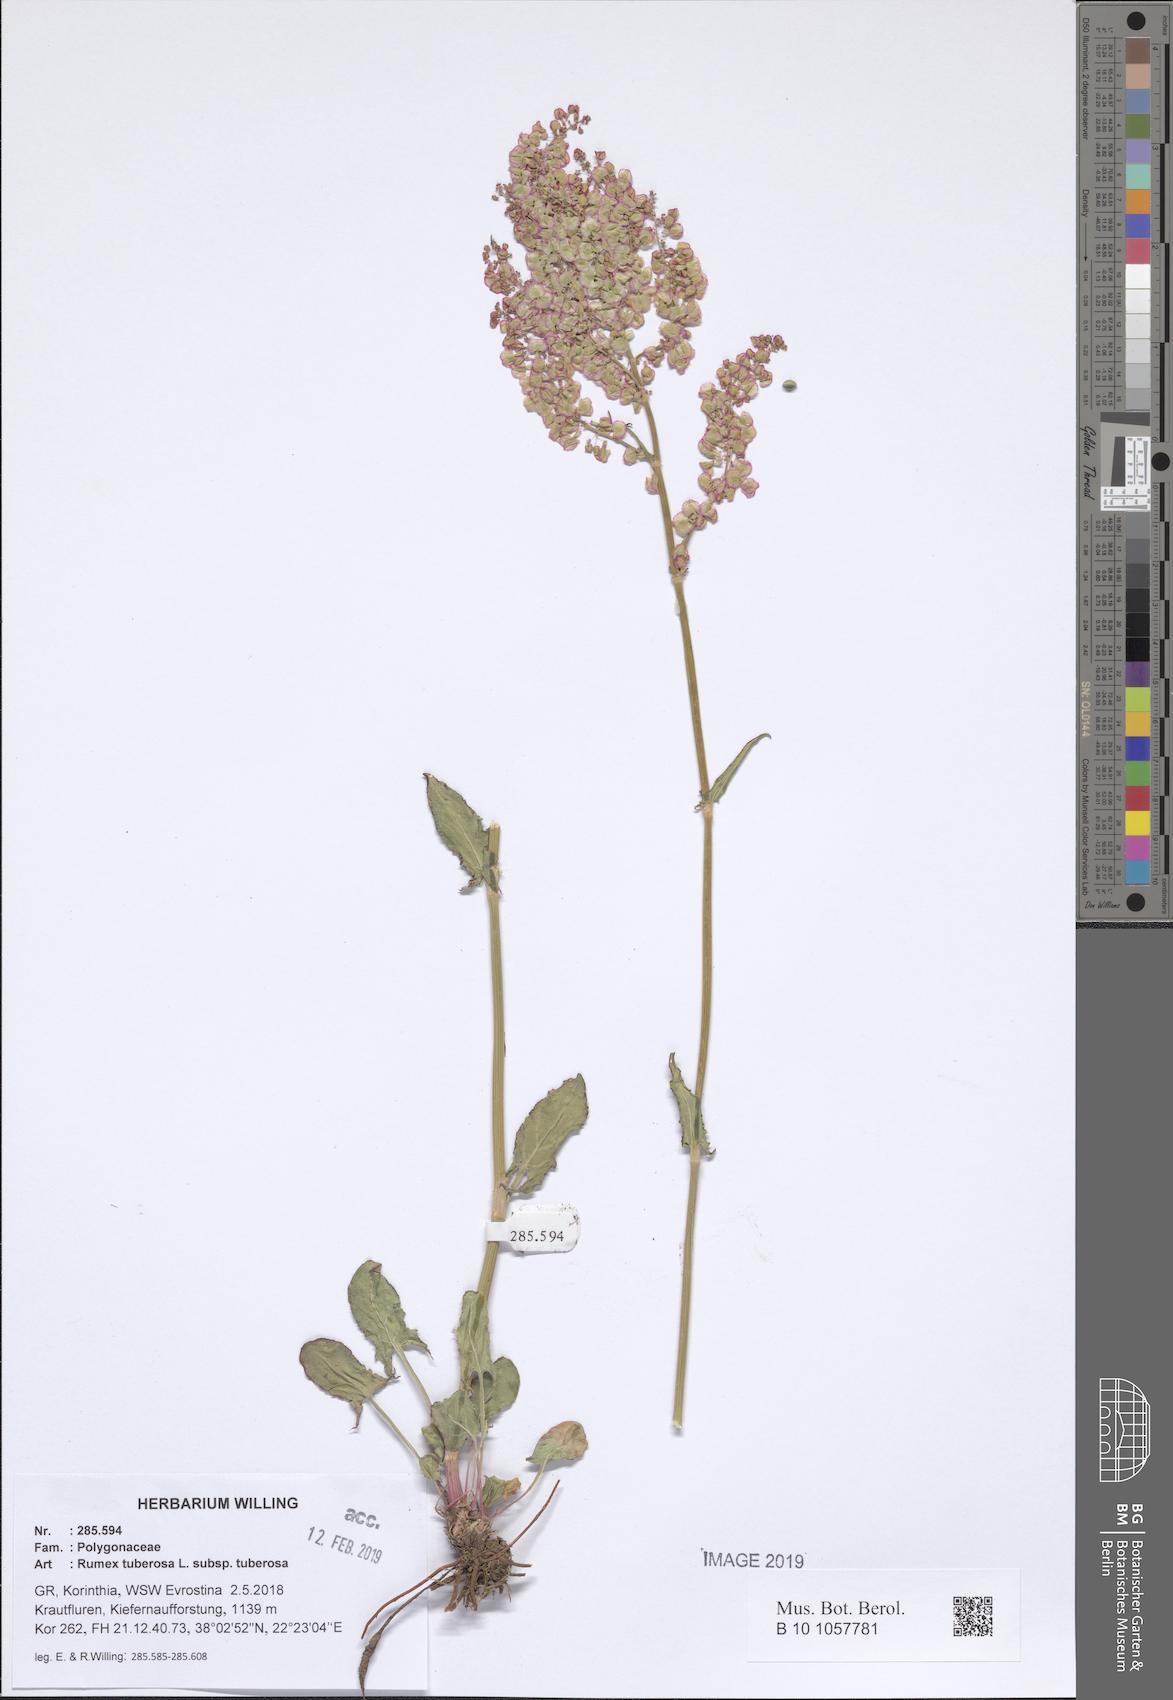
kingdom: Plantae
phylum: Tracheophyta
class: Magnoliopsida
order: Caryophyllales
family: Polygonaceae
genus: Rumex
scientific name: Rumex tuberosus
